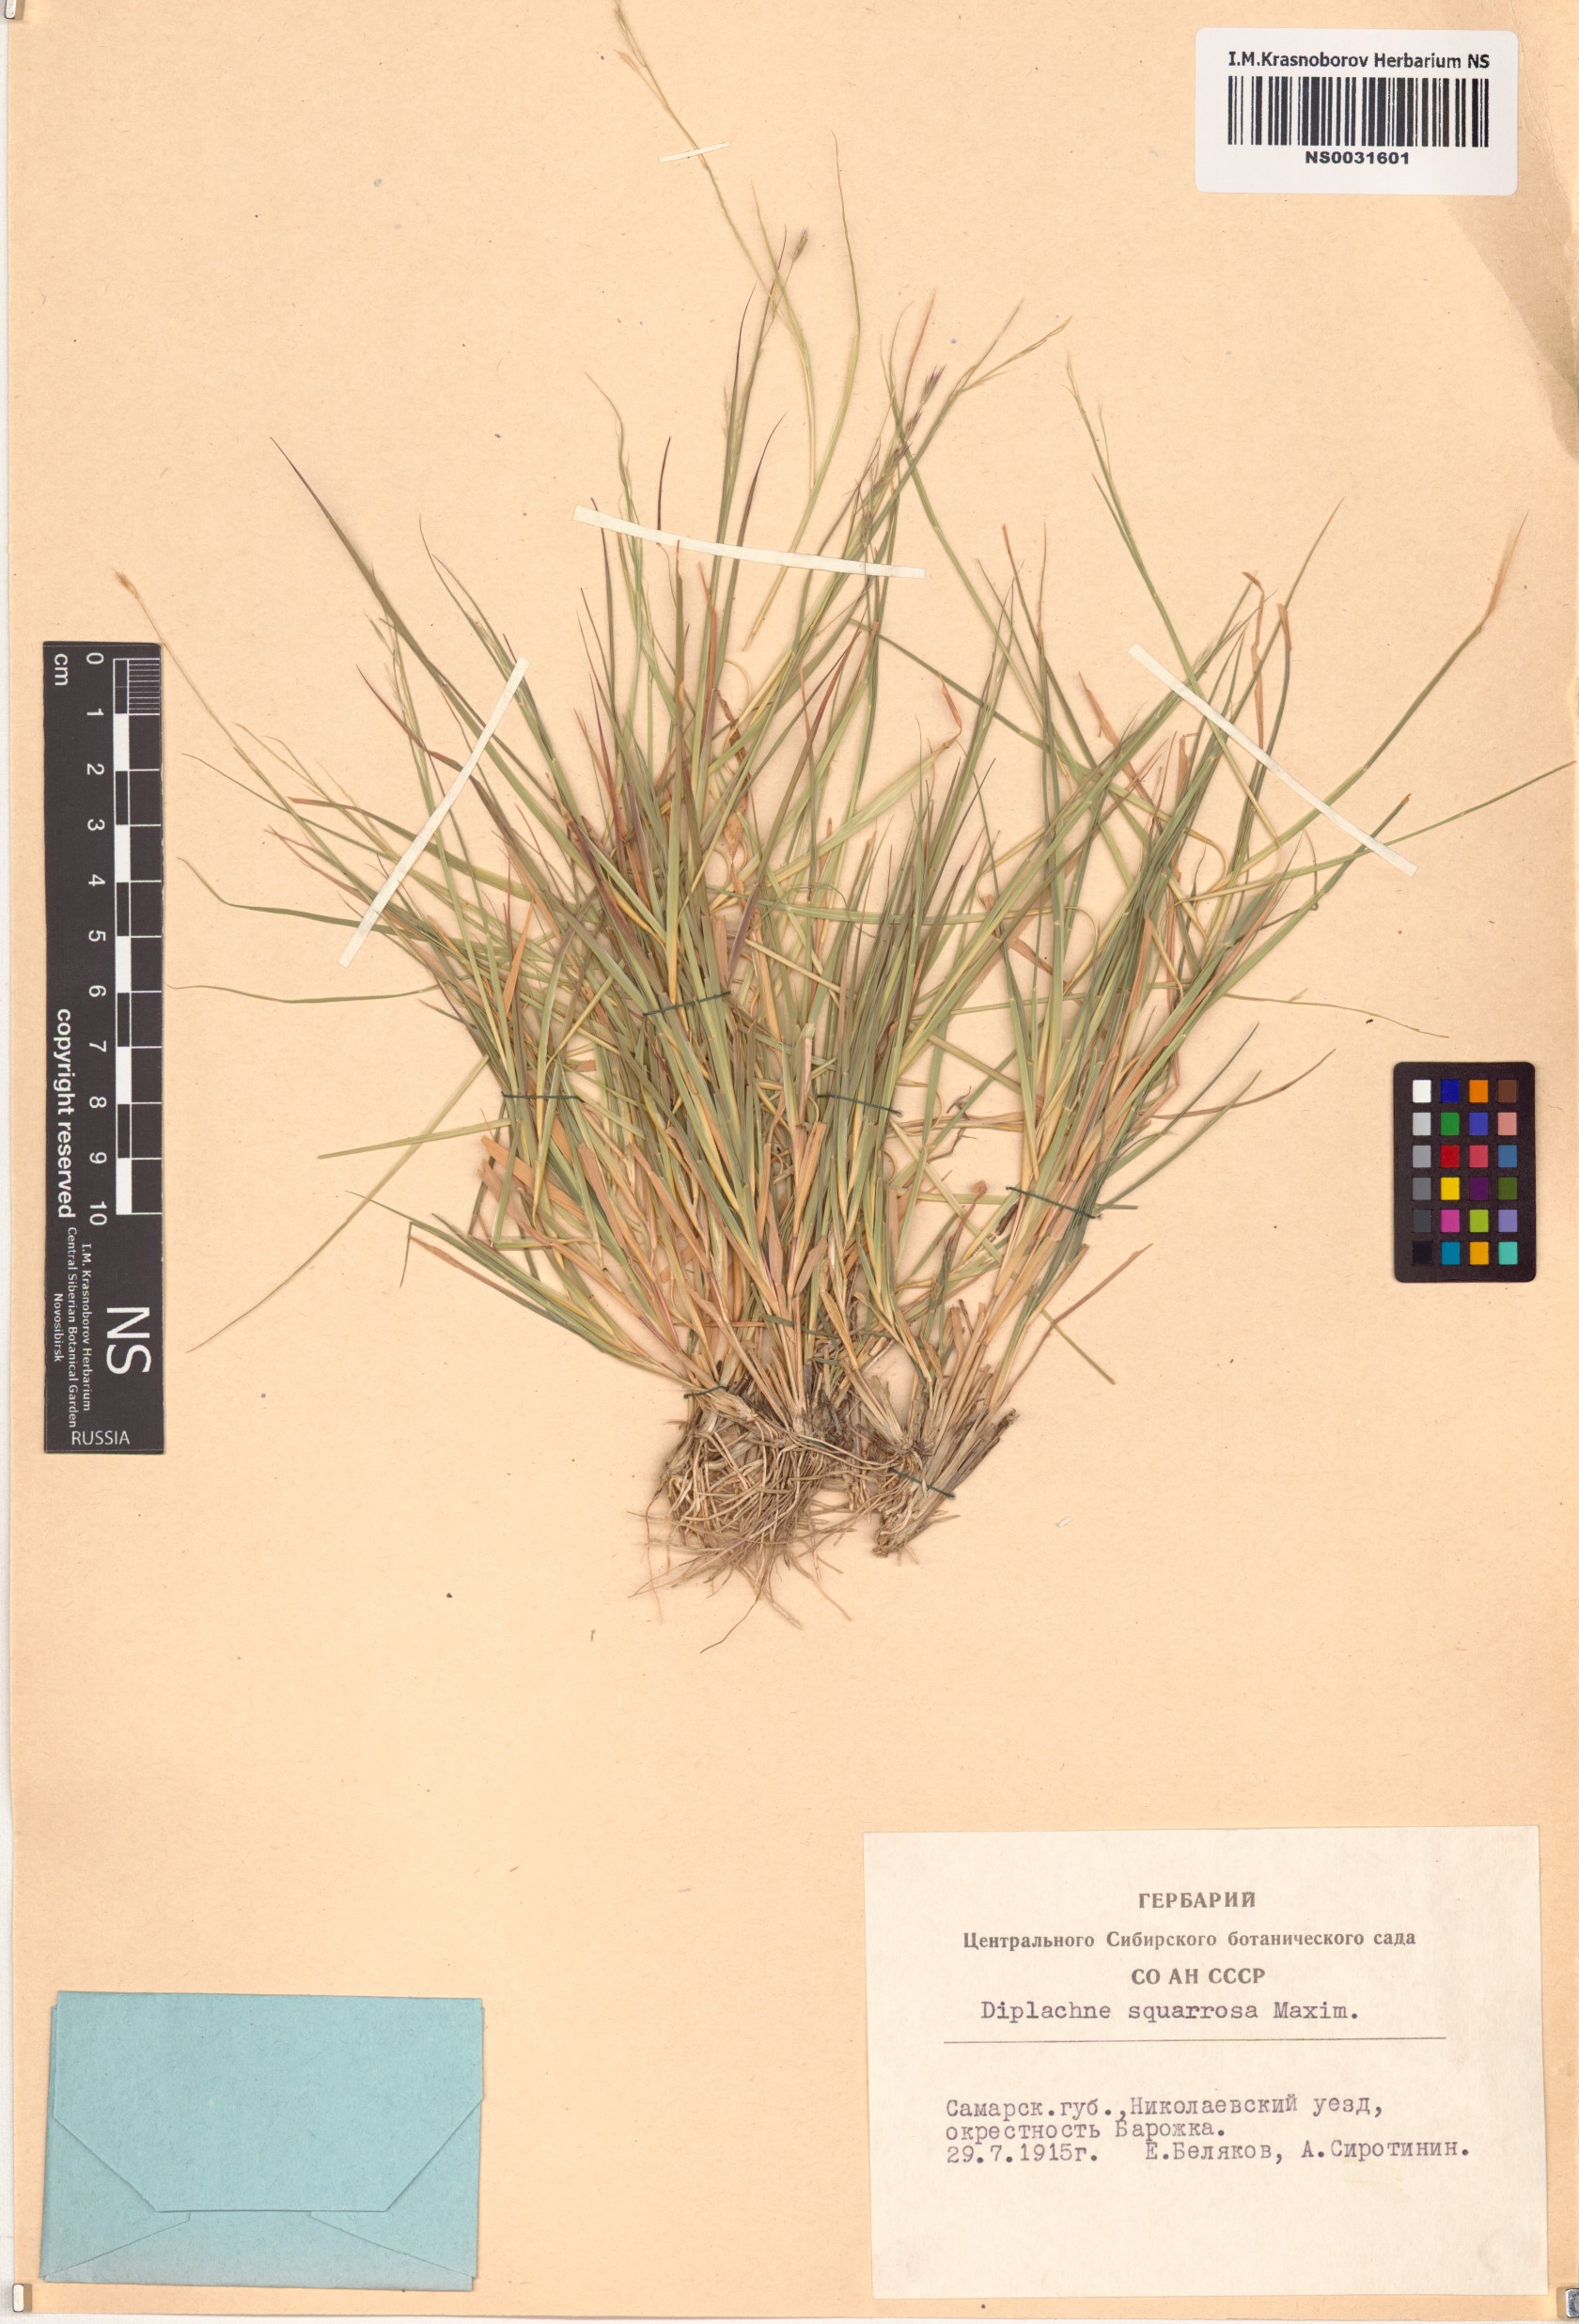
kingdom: Plantae
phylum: Tracheophyta
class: Liliopsida
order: Poales
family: Poaceae
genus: Cleistogenes
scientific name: Cleistogenes squarrosa
